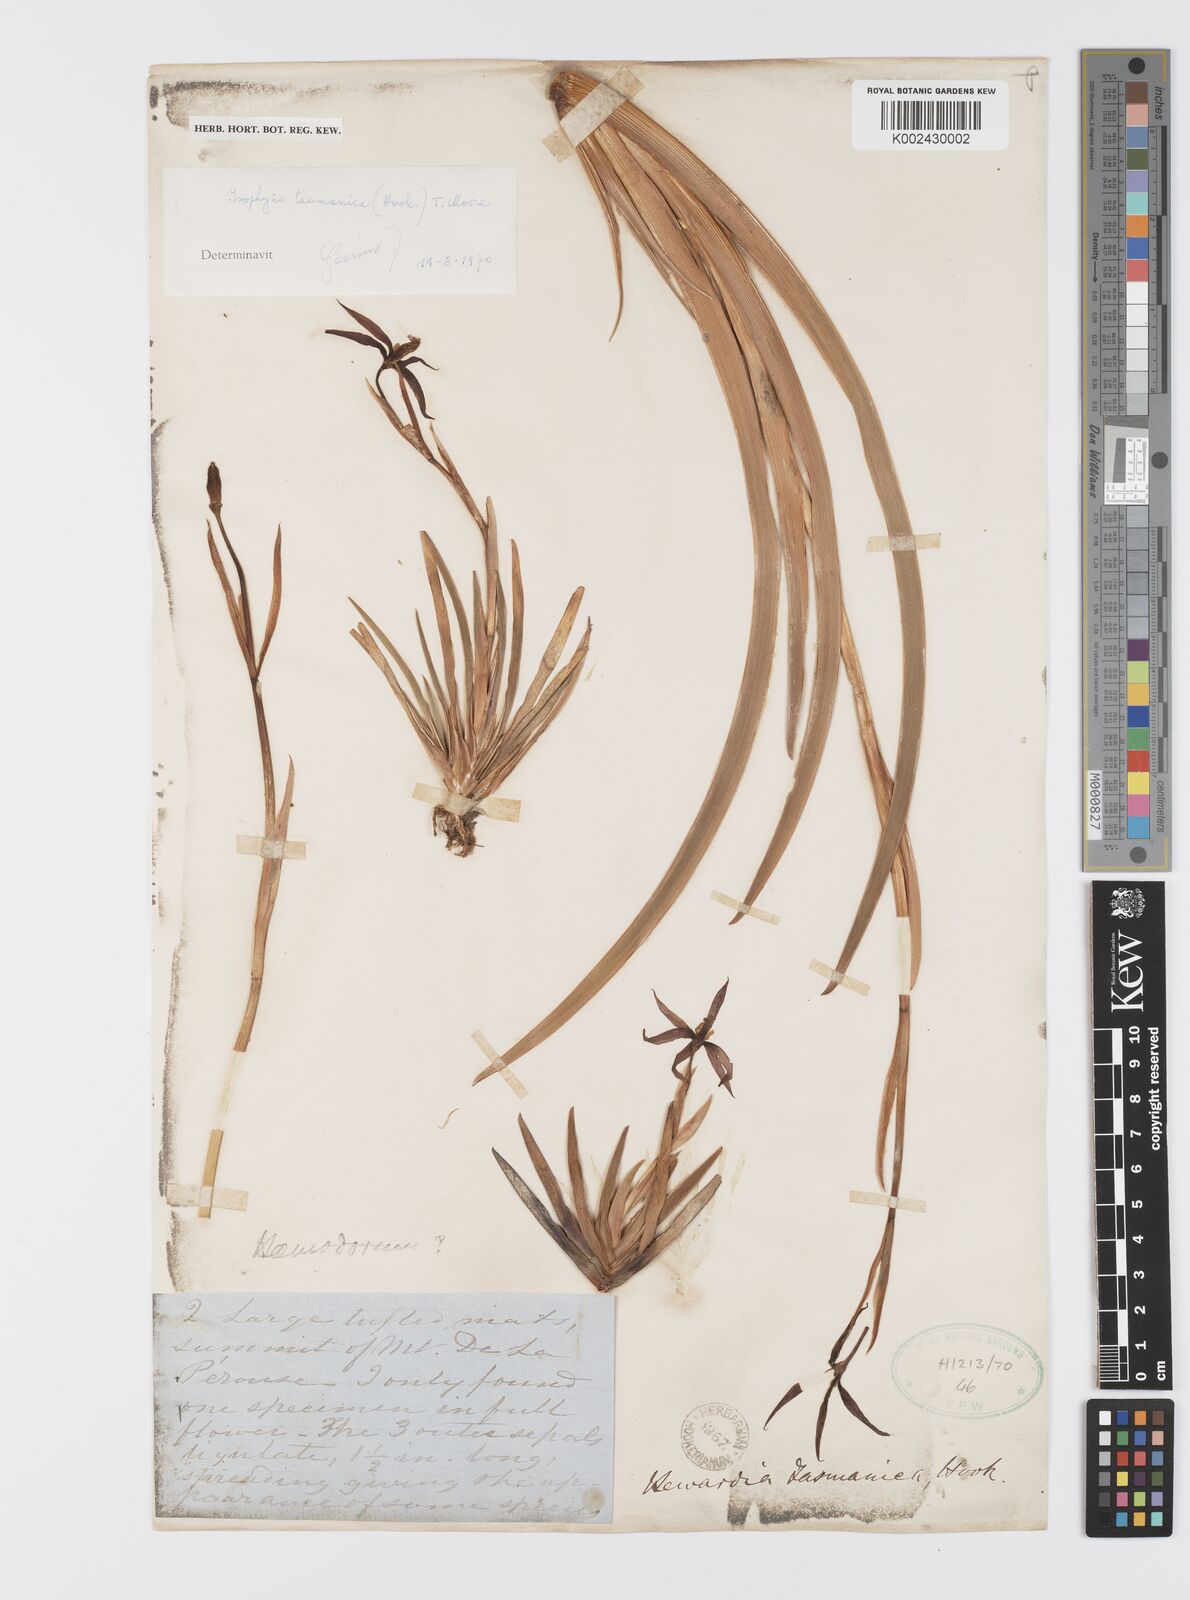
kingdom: Plantae
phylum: Tracheophyta
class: Liliopsida
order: Asparagales
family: Iridaceae
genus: Isophysis
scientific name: Isophysis
